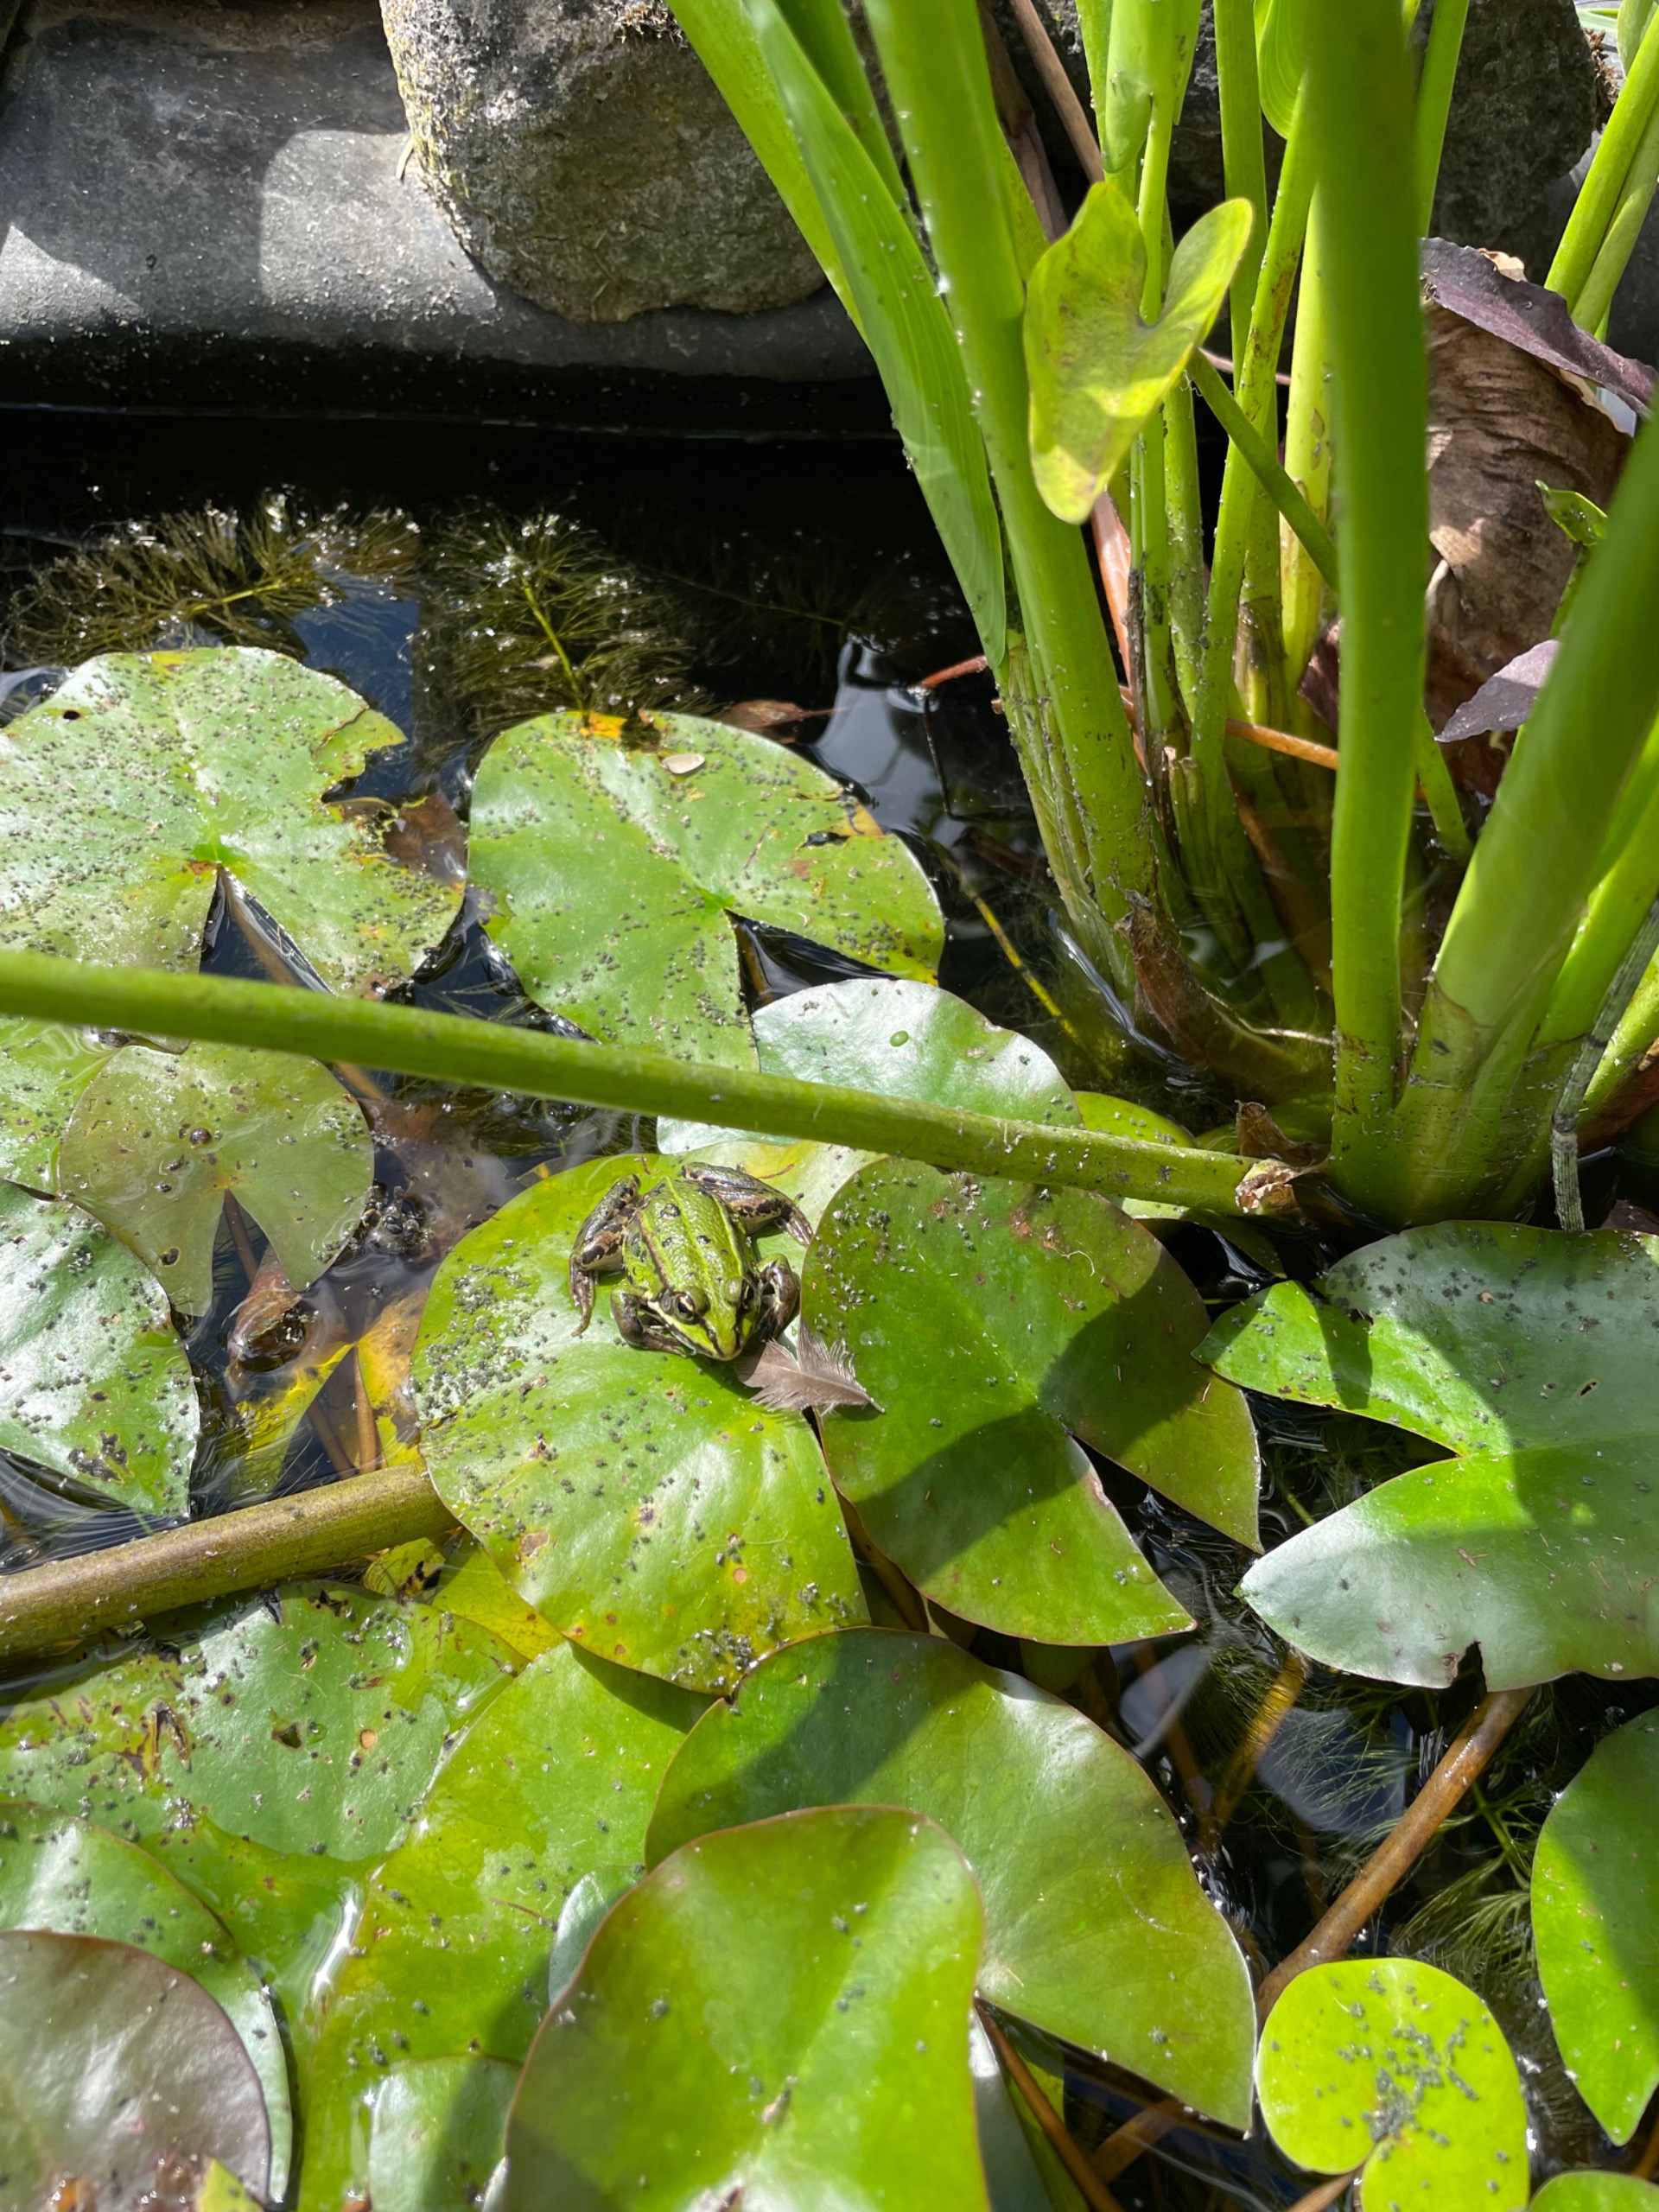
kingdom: Animalia
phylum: Chordata
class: Amphibia
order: Anura
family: Ranidae
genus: Pelophylax
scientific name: Pelophylax lessonae
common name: Grøn frø
